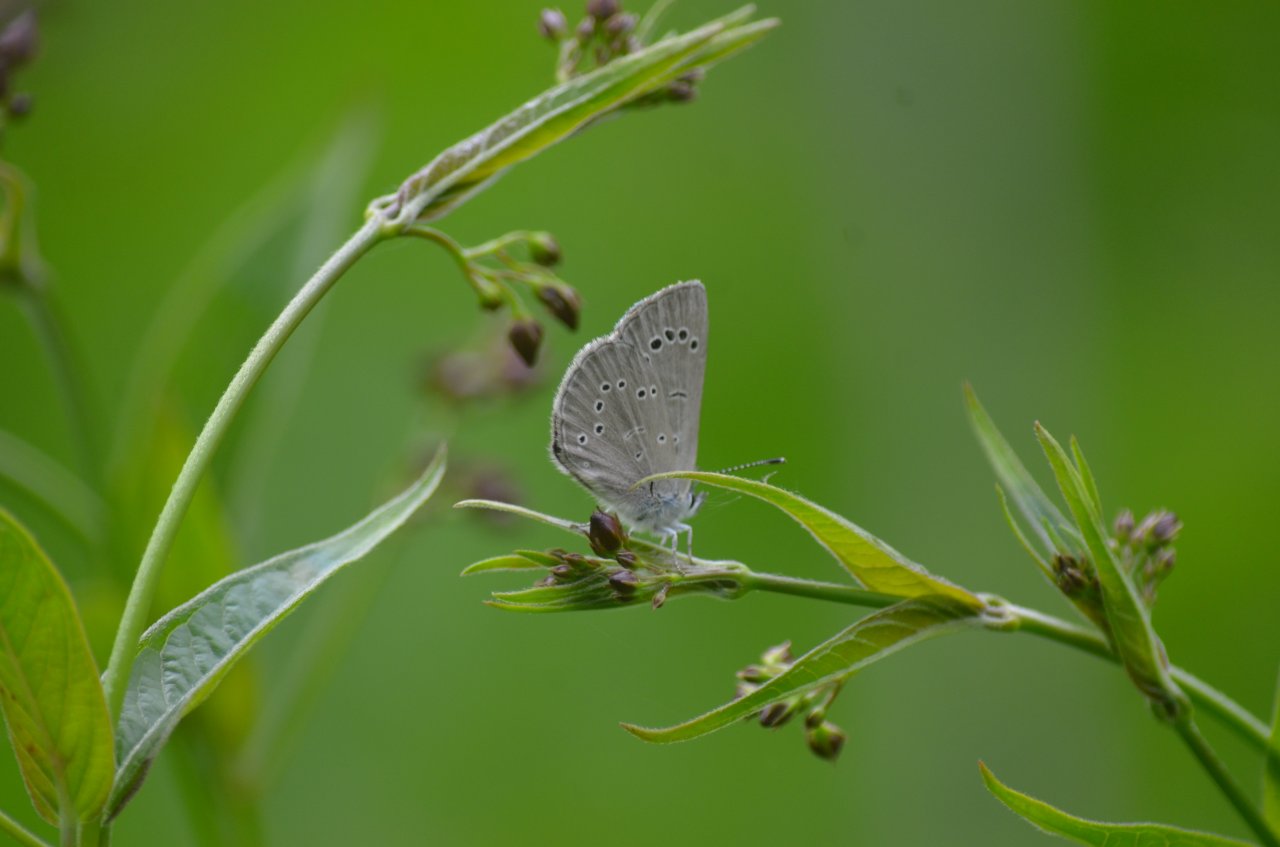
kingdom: Animalia
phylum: Arthropoda
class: Insecta
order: Lepidoptera
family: Lycaenidae
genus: Glaucopsyche
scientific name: Glaucopsyche lygdamus
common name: Silvery Blue
